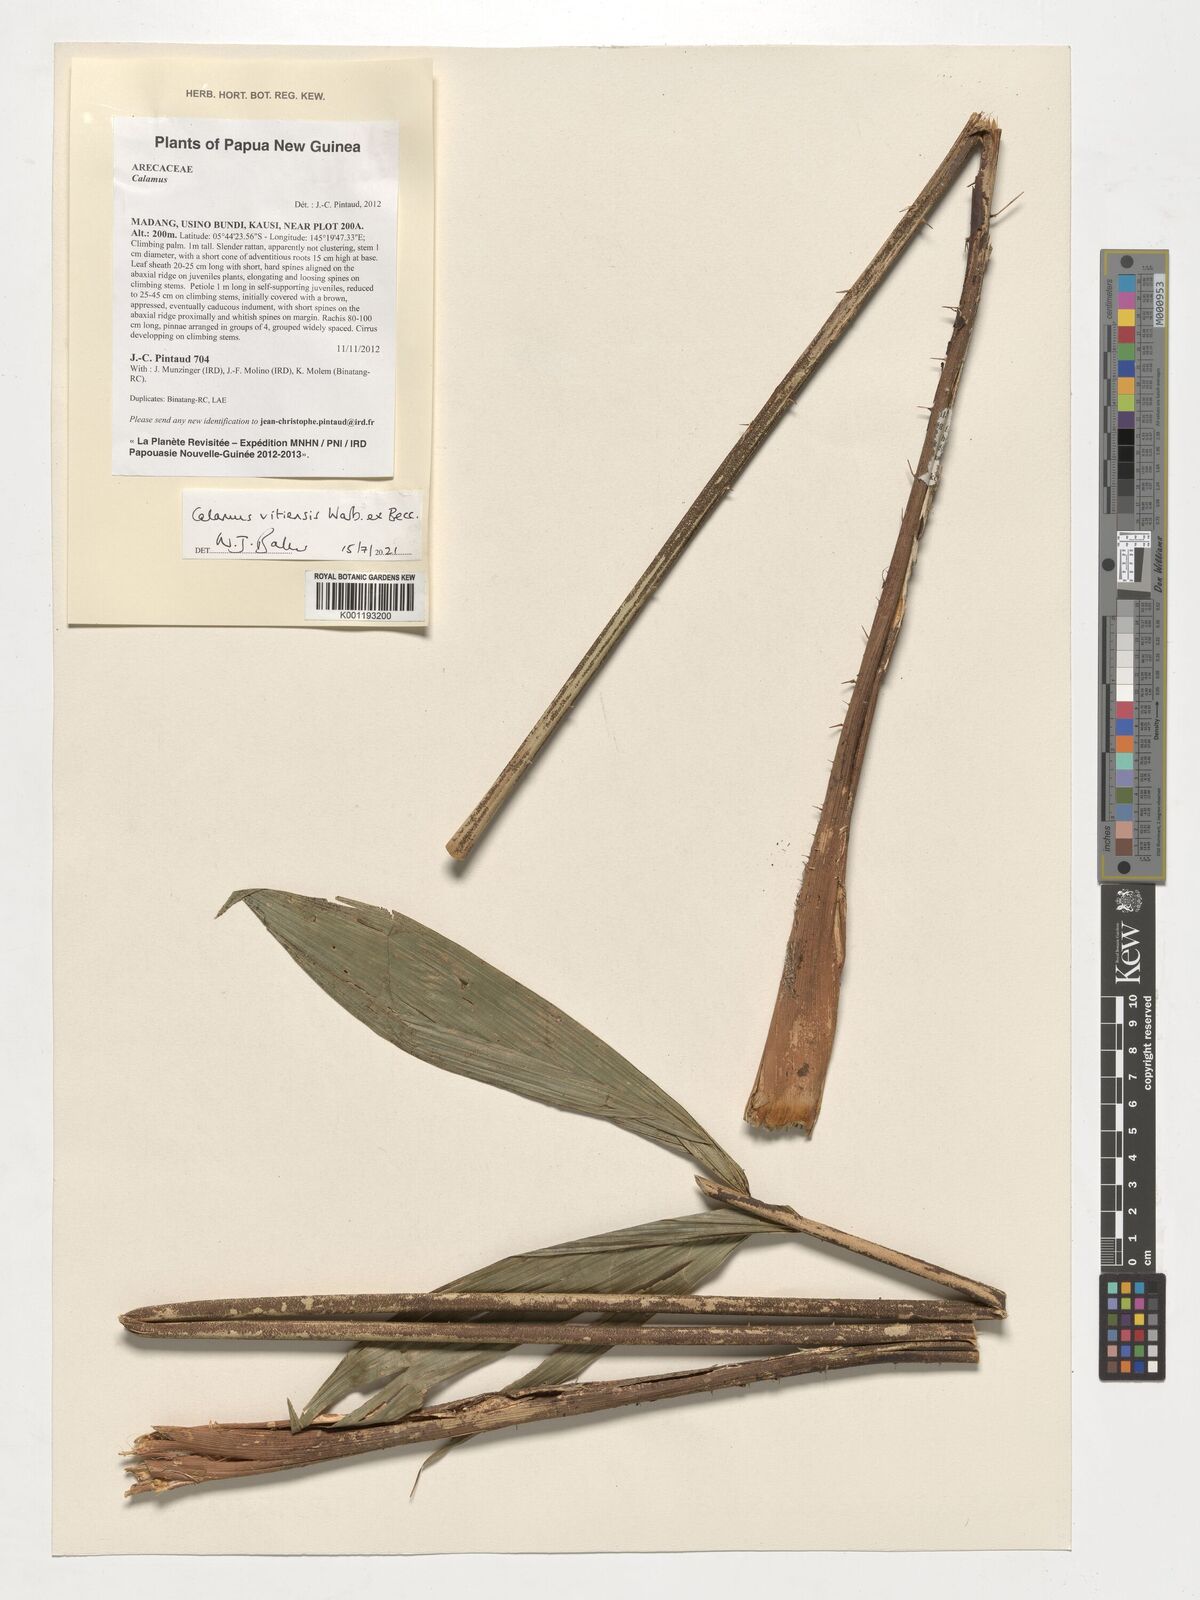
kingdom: Plantae
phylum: Tracheophyta
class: Liliopsida
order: Arecales
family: Arecaceae
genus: Calamus
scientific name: Calamus vitiensis
